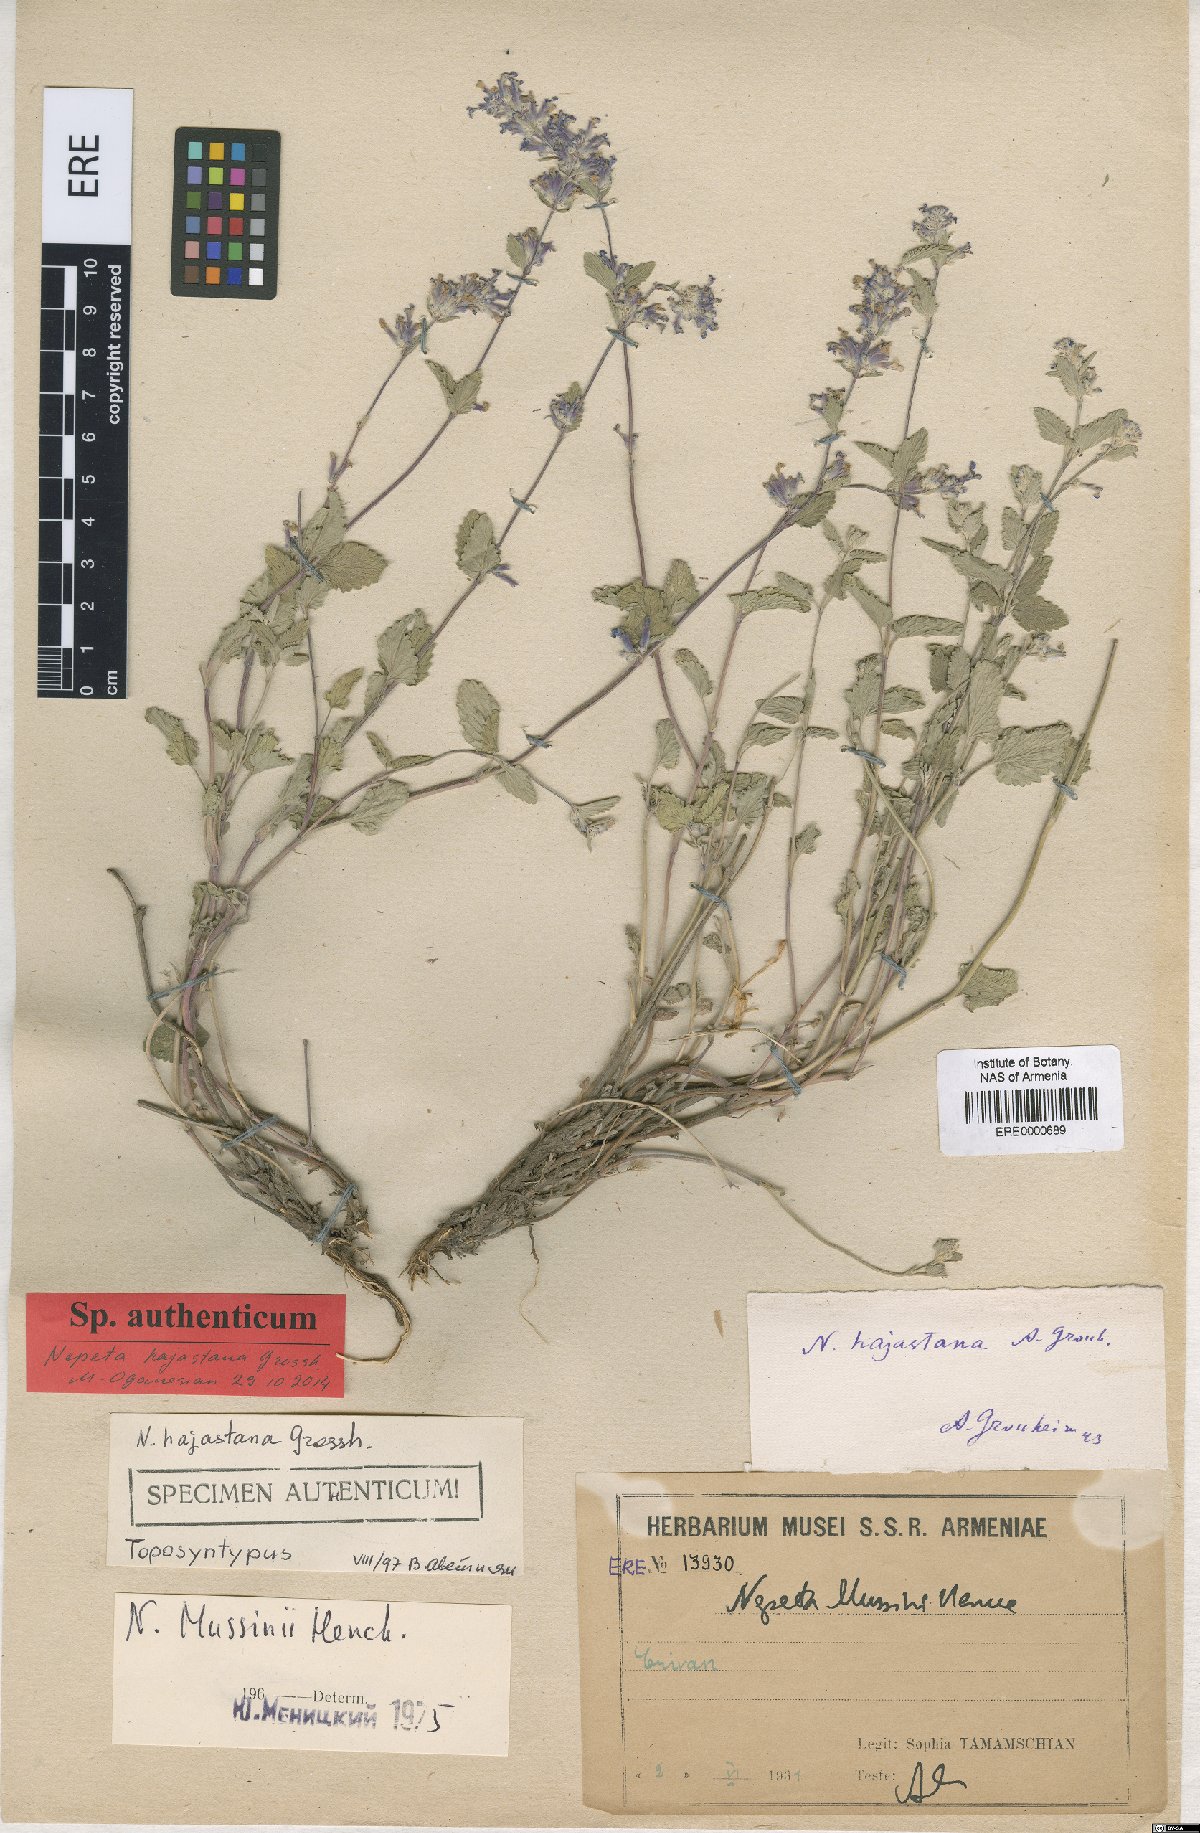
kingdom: Plantae
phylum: Tracheophyta
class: Magnoliopsida
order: Lamiales
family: Lamiaceae
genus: Nepeta
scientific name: Nepeta racemosa
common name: Raceme catnip
